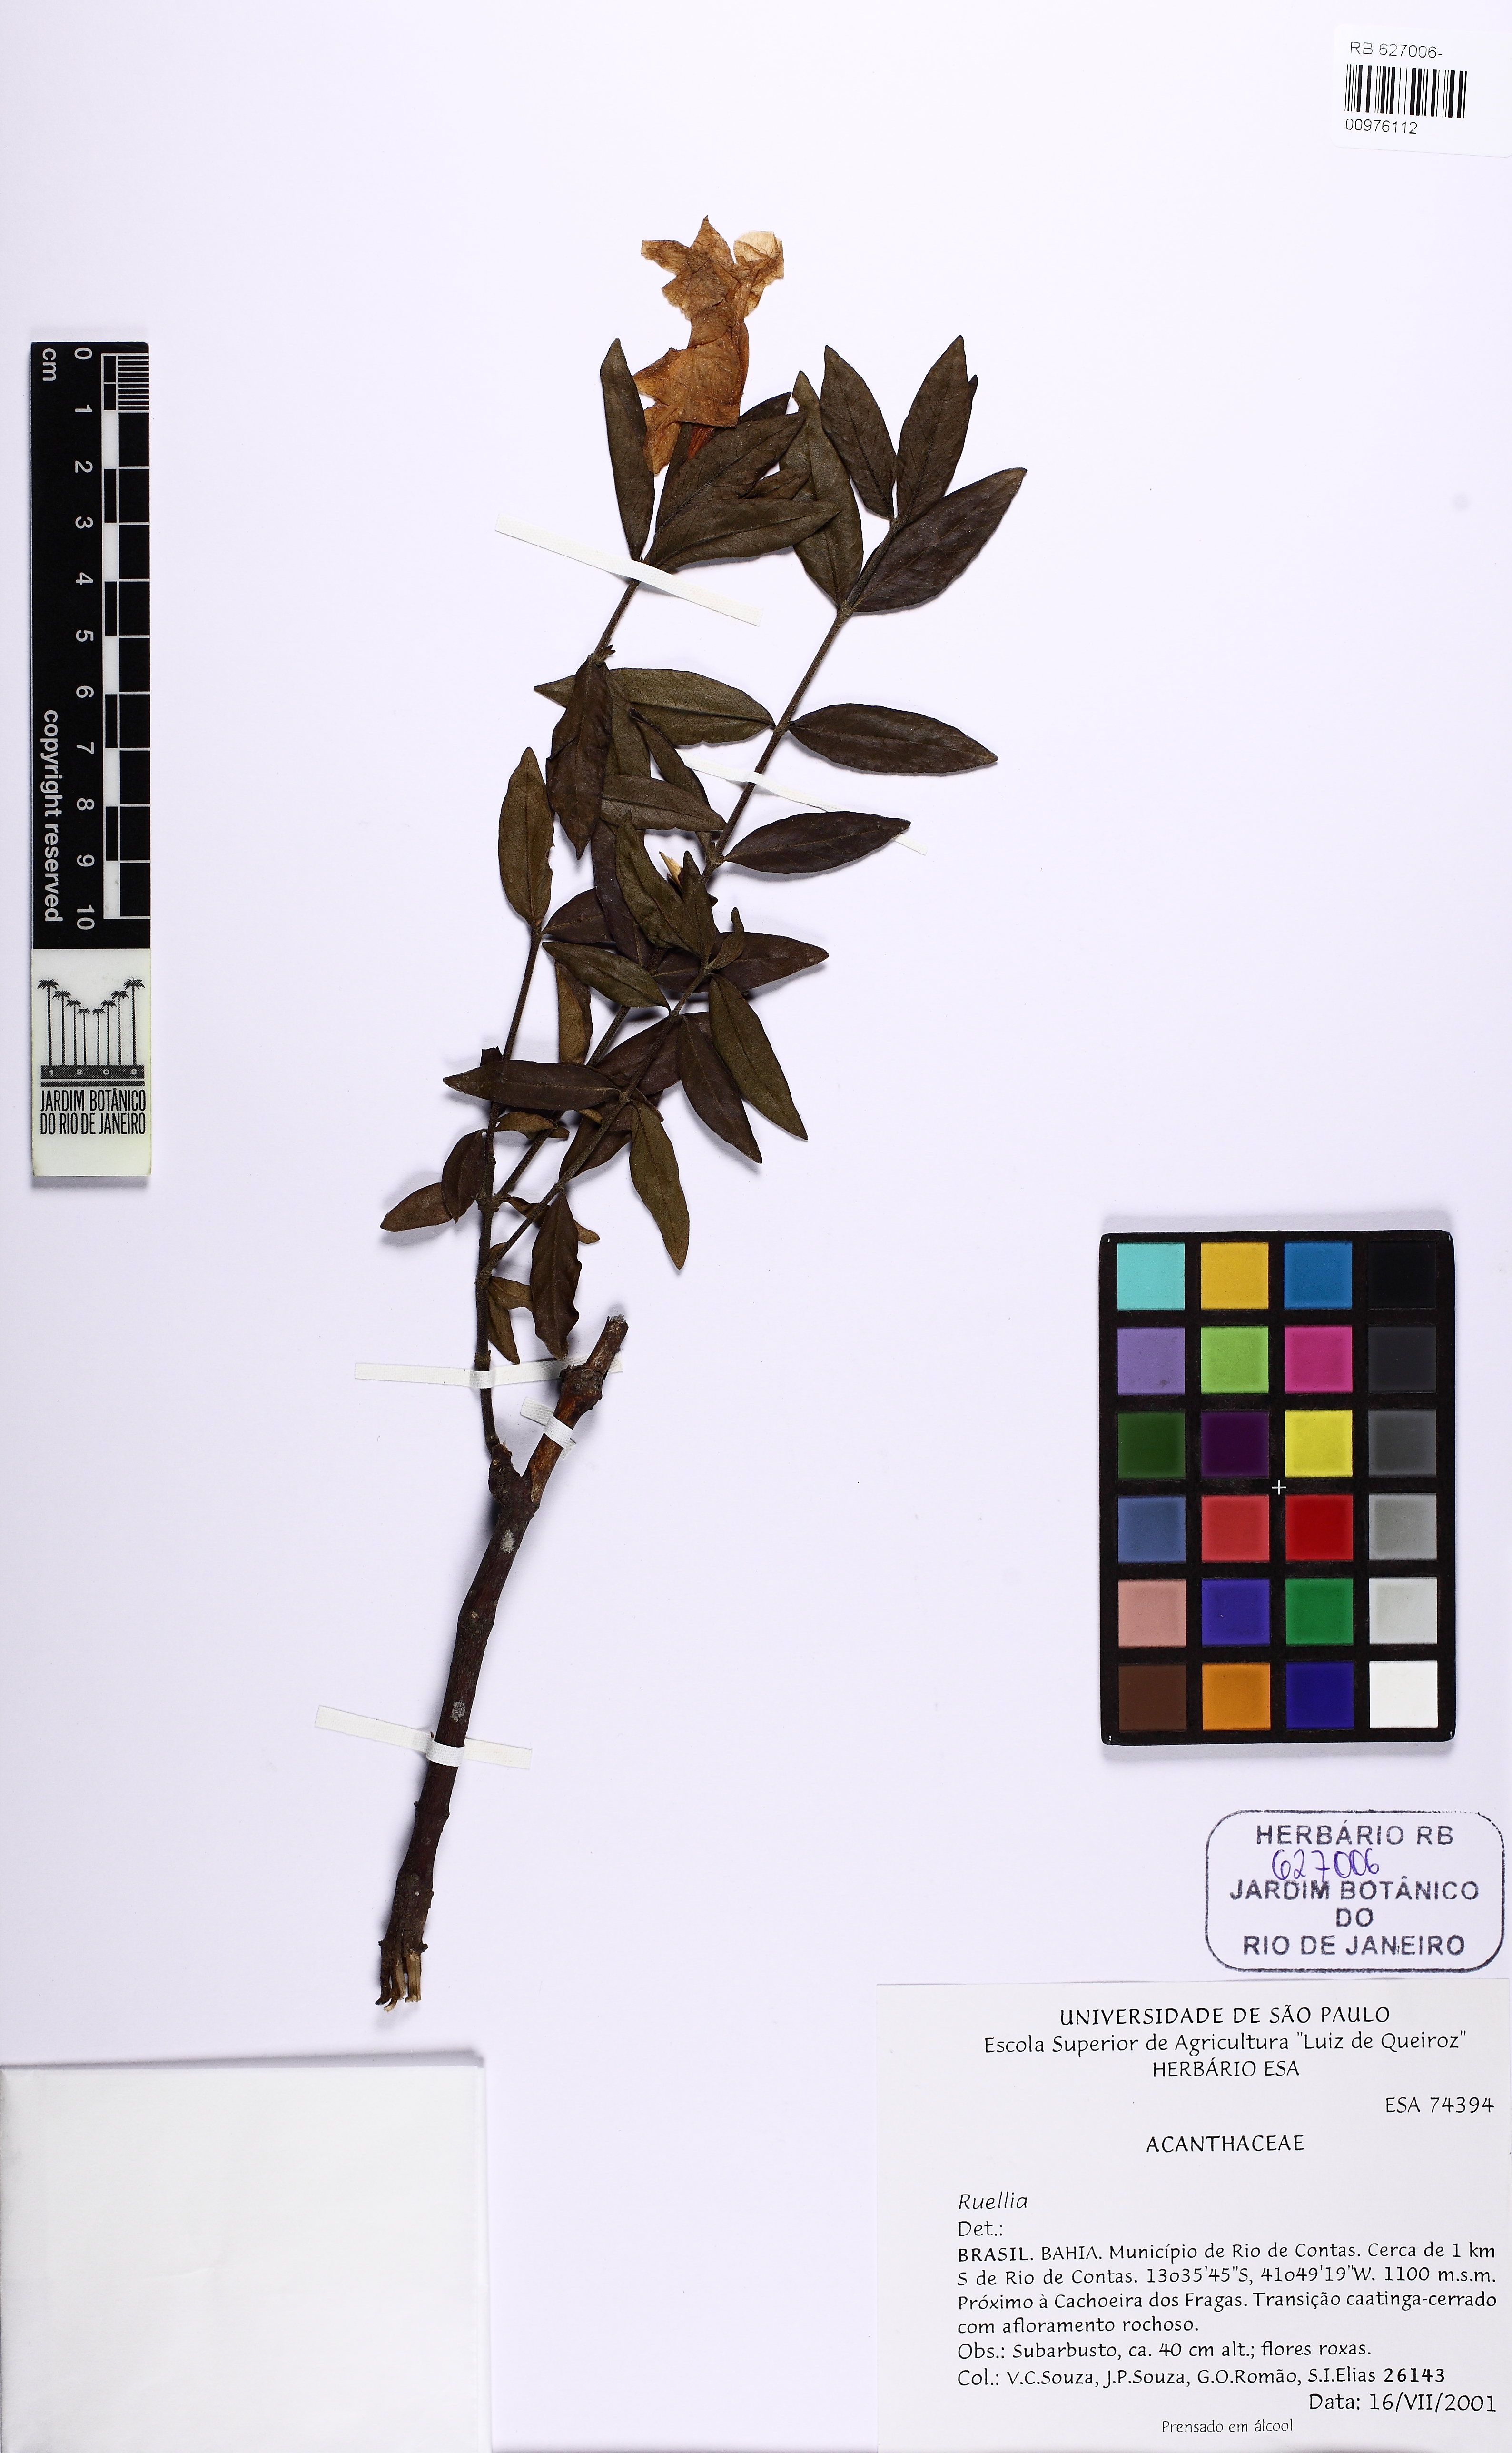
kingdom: Plantae
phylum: Tracheophyta
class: Magnoliopsida
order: Lamiales
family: Acanthaceae
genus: Ruellia
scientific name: Ruellia
